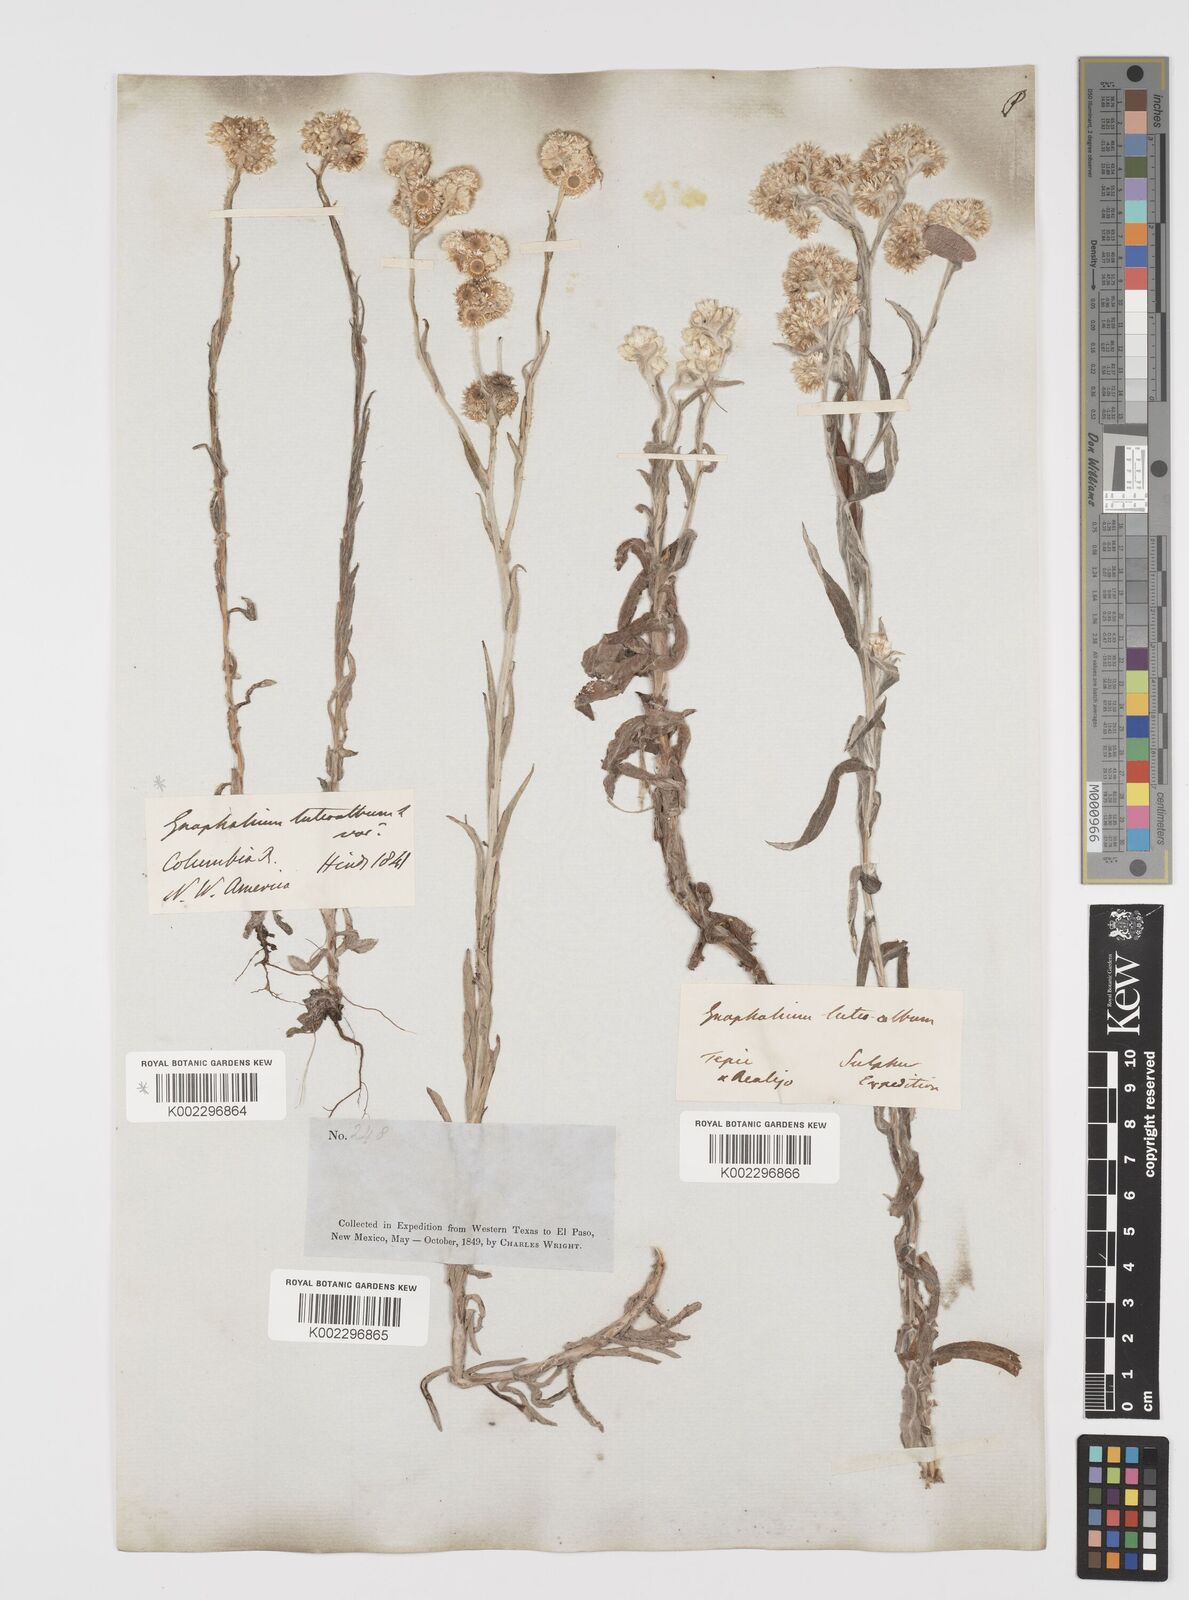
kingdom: Plantae
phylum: Tracheophyta
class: Magnoliopsida
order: Asterales
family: Asteraceae
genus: Helichrysum
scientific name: Helichrysum luteoalbum
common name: Daisy
